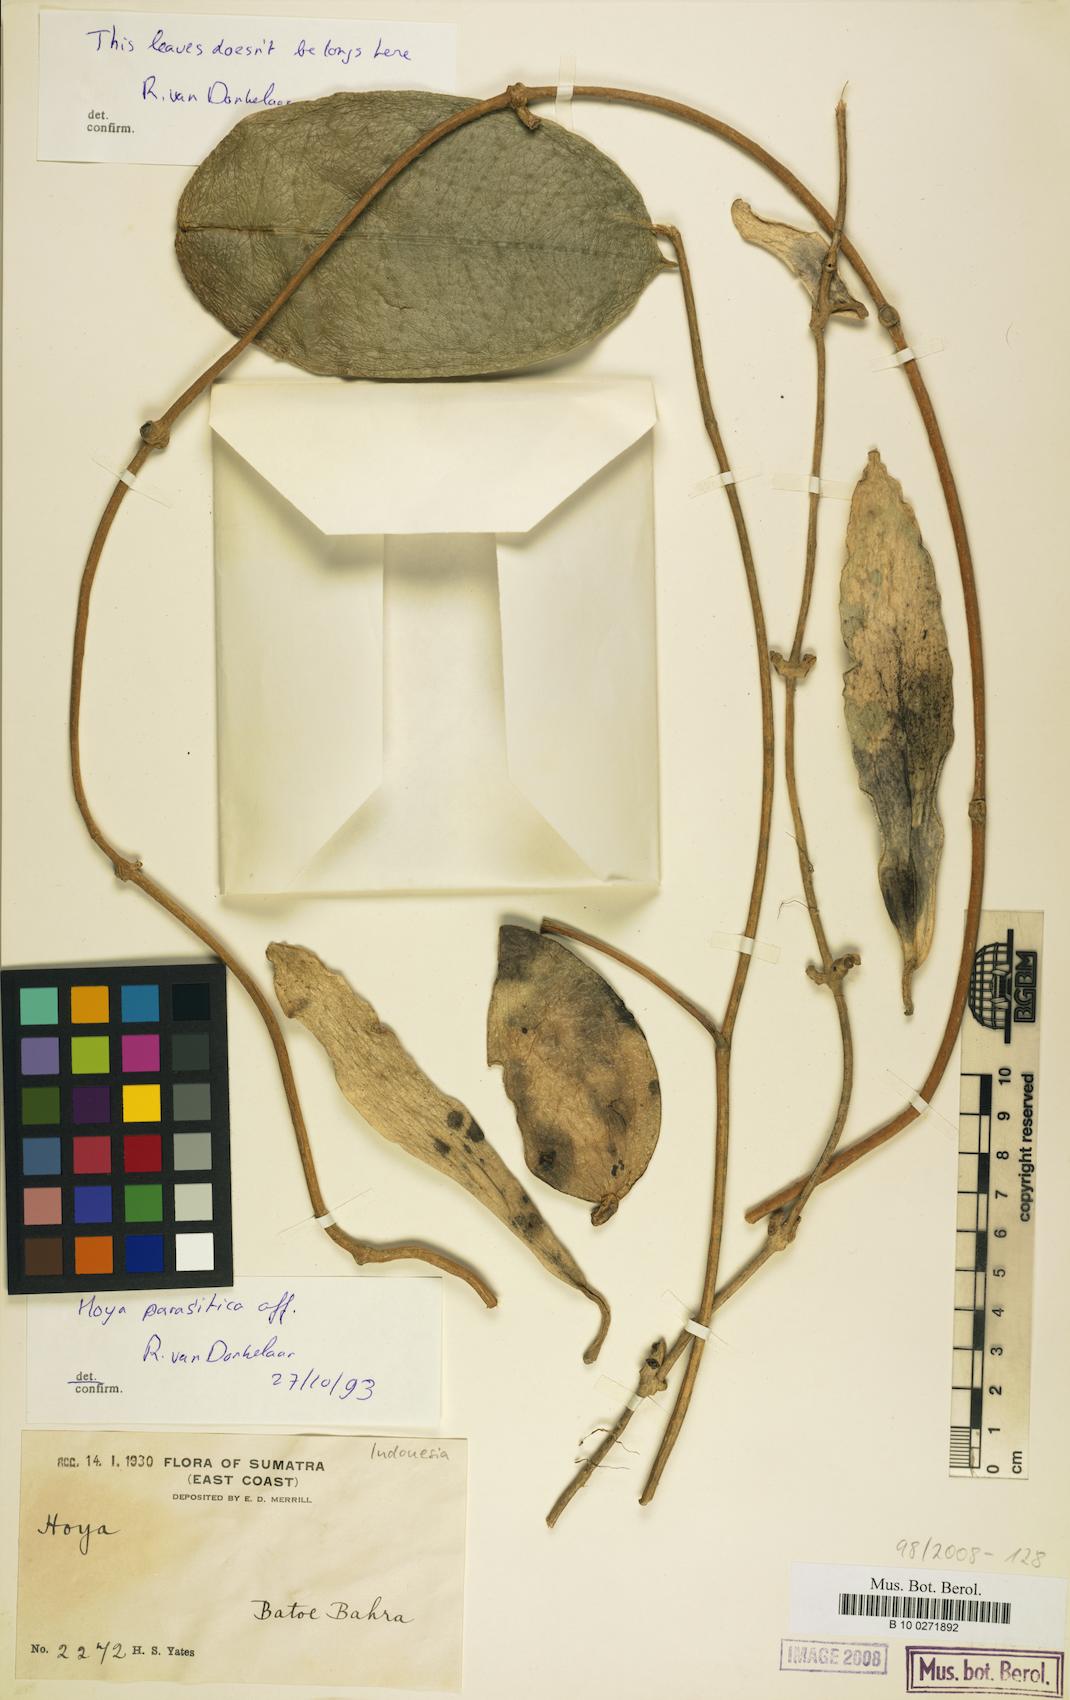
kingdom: Plantae
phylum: Tracheophyta
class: Magnoliopsida
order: Gentianales
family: Apocynaceae
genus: Hoya
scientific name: Hoya verticillata
